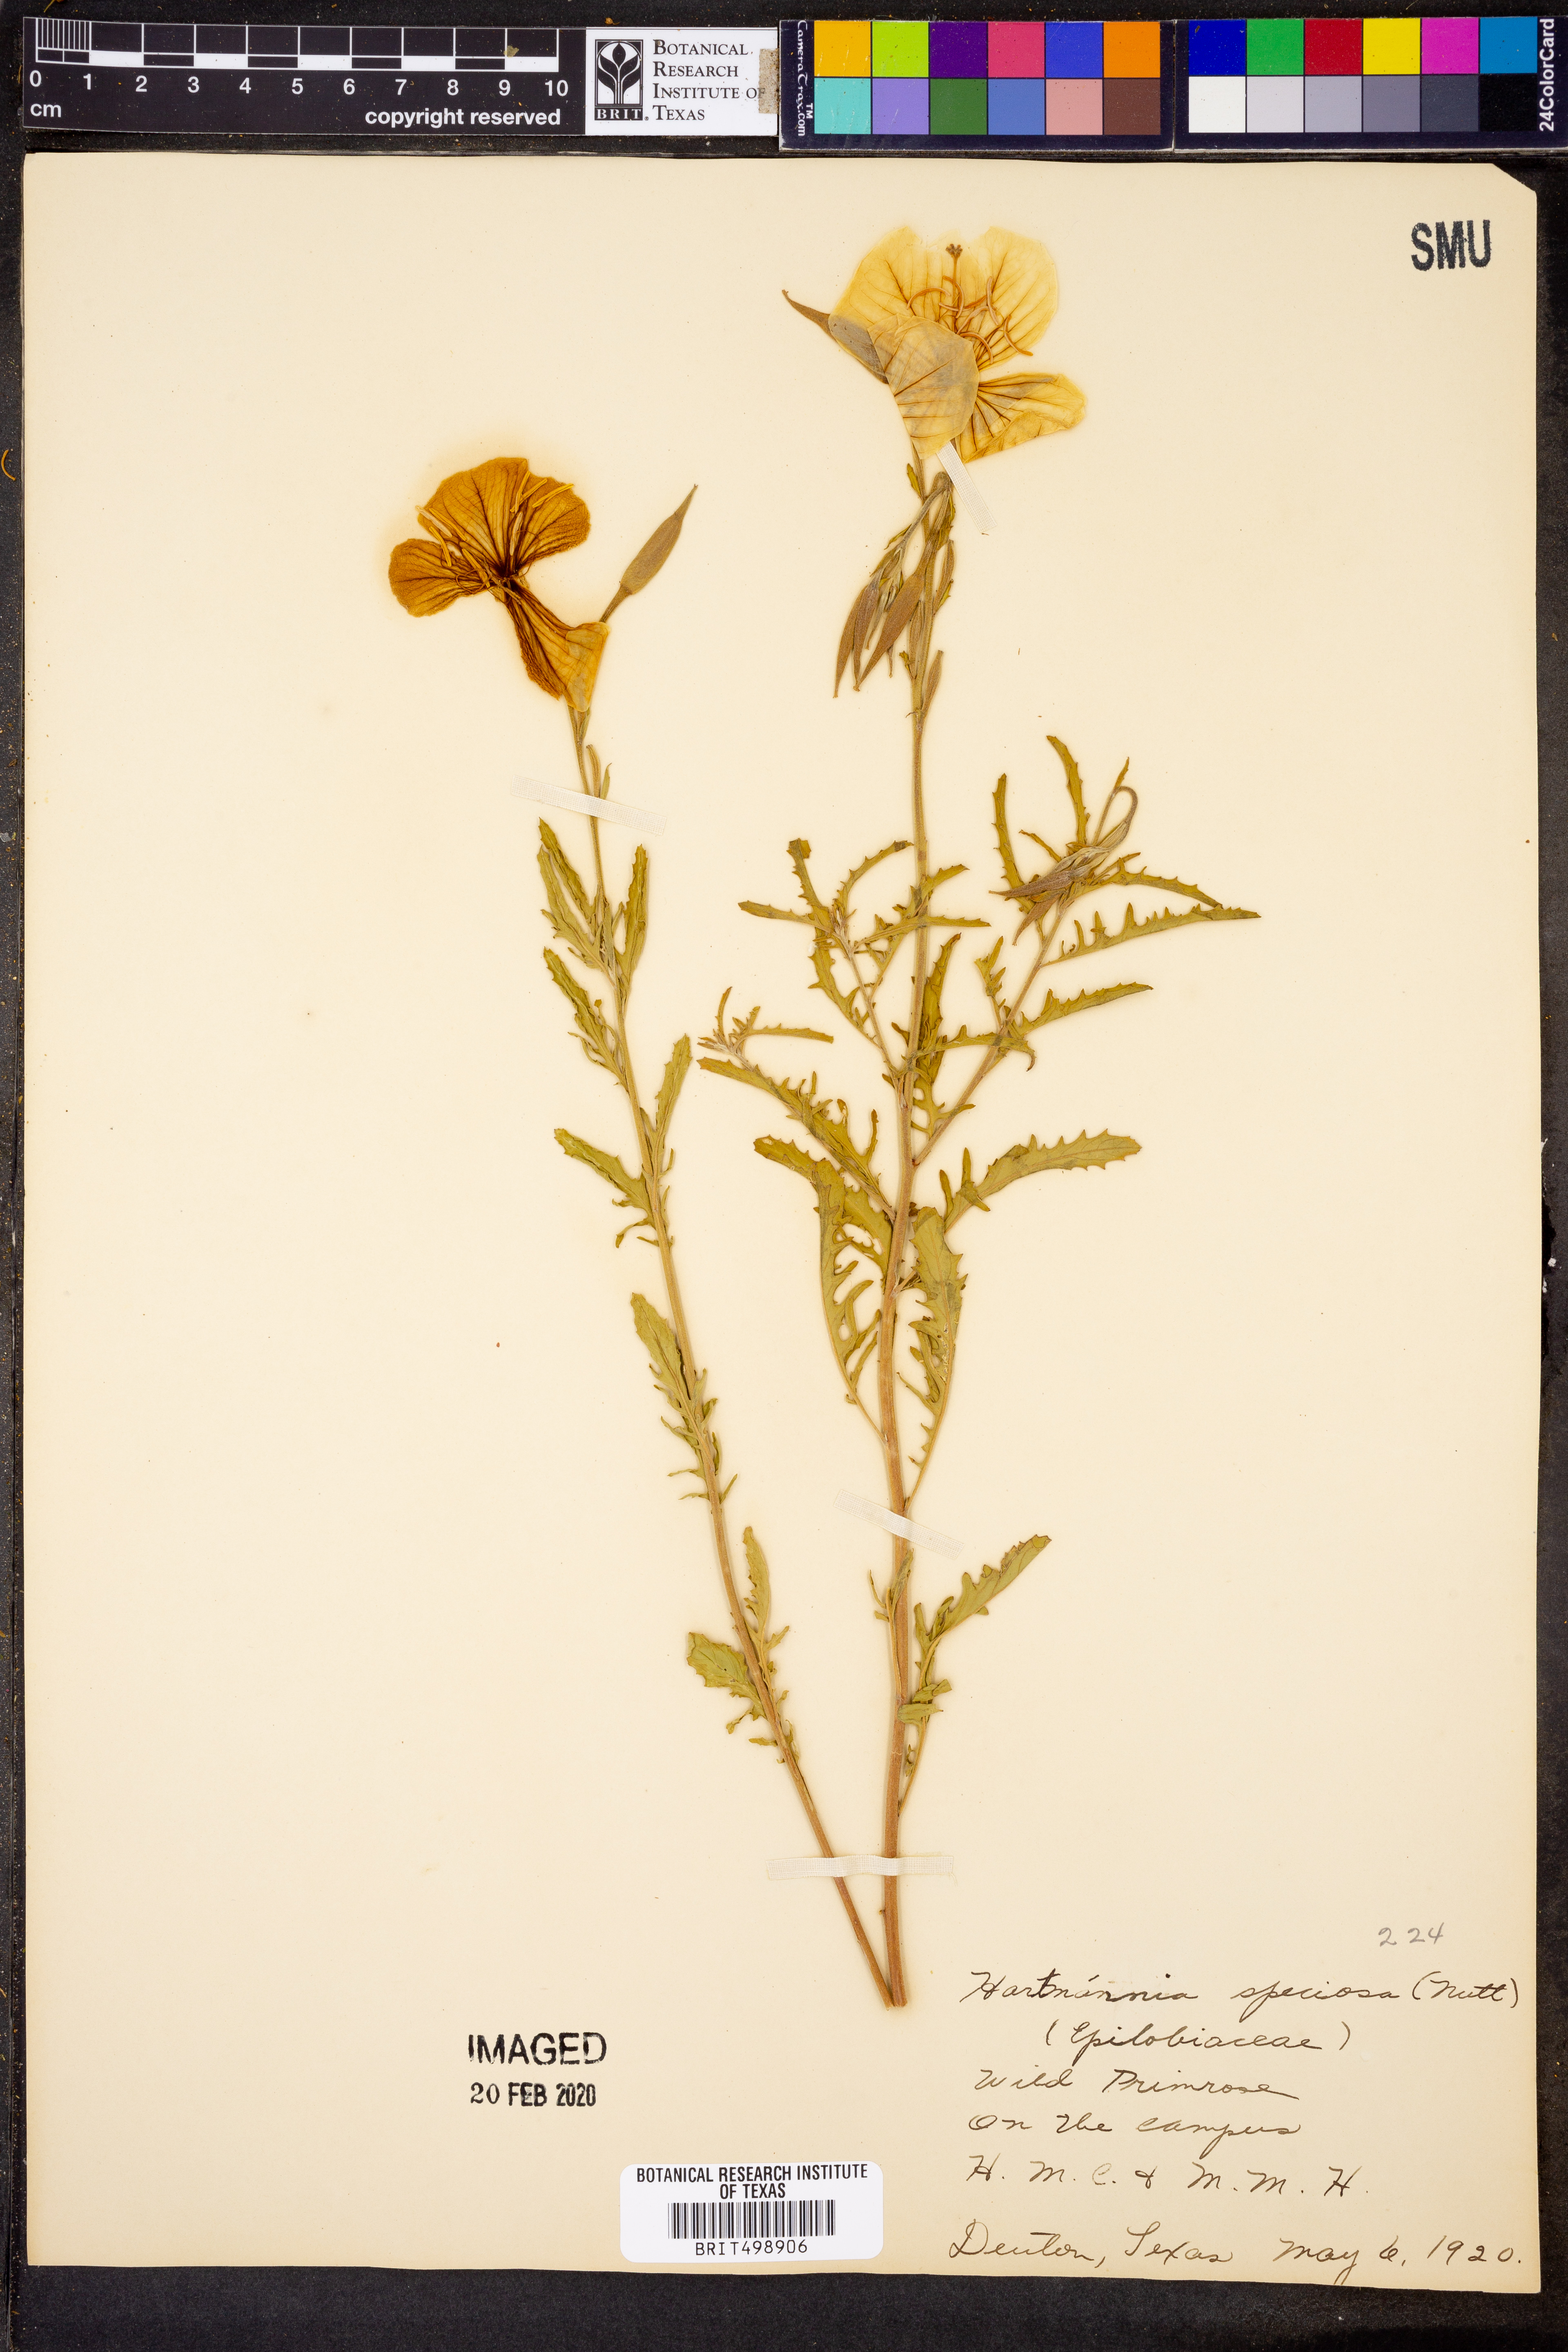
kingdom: Plantae
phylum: Tracheophyta
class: Magnoliopsida
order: Myrtales
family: Onagraceae
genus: Oenothera
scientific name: Oenothera speciosa
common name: White evening-primrose
